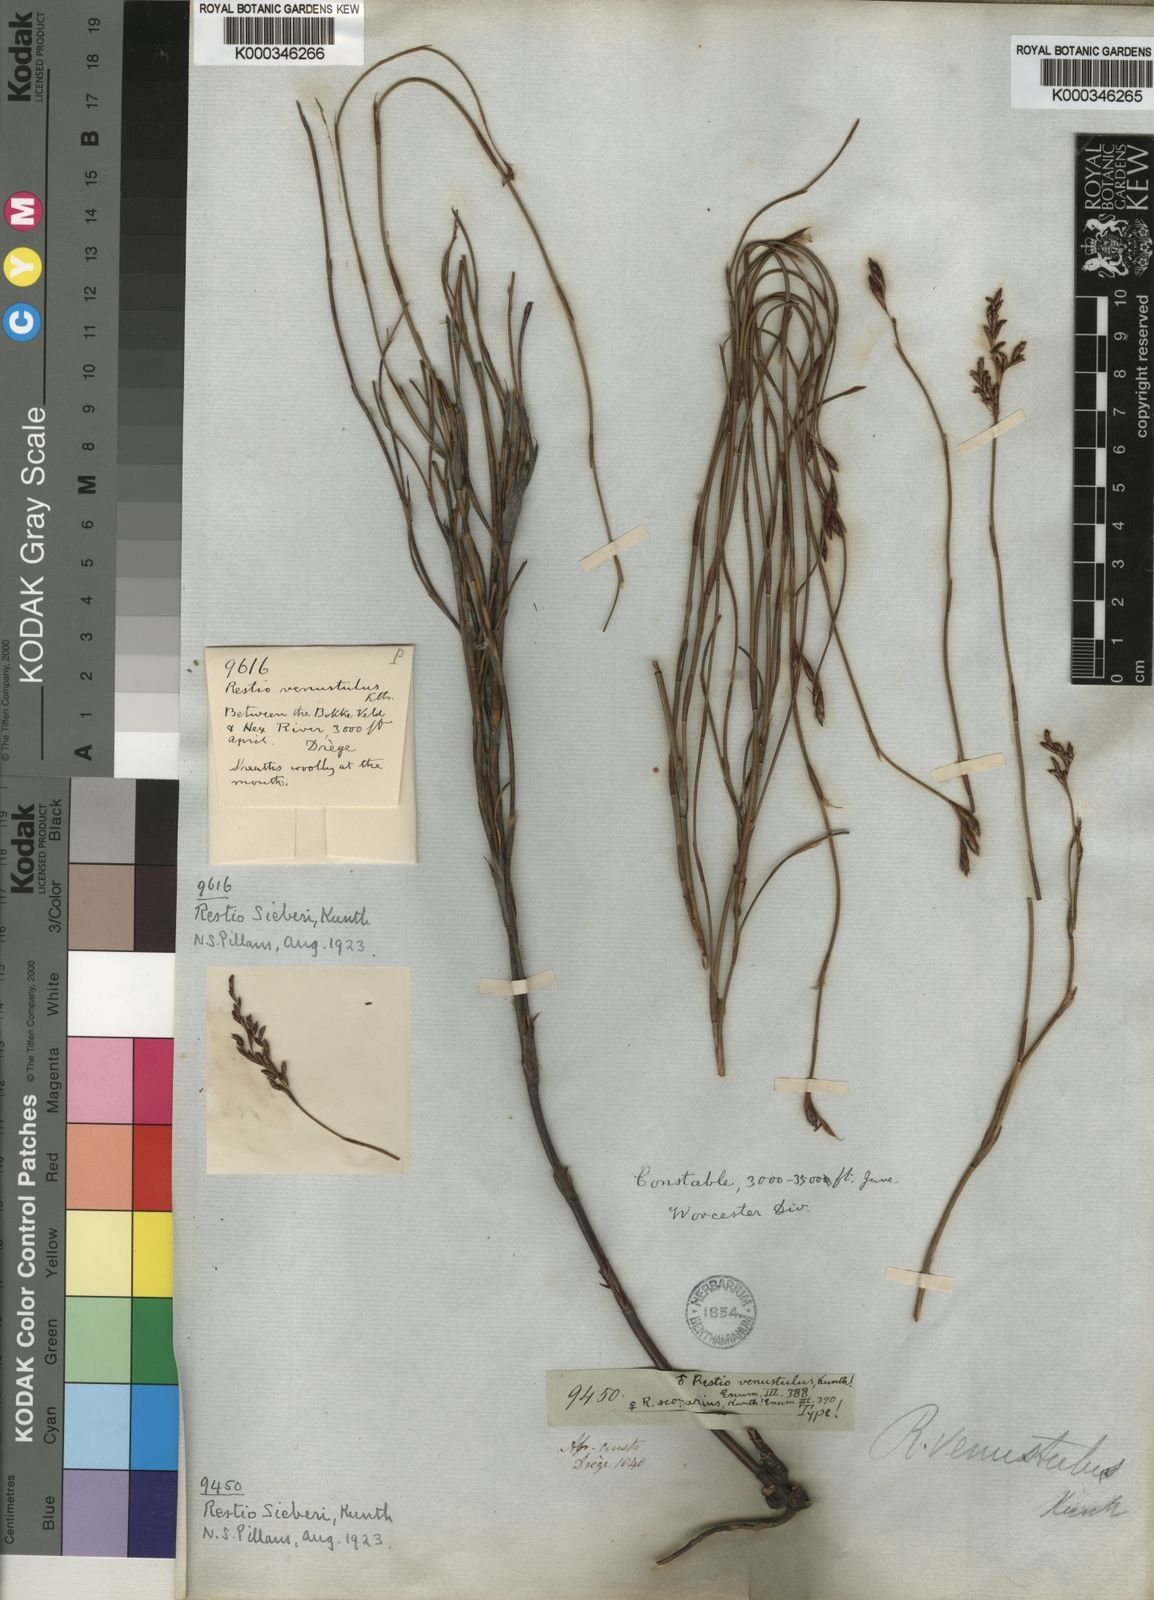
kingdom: Plantae
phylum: Tracheophyta
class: Liliopsida
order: Poales
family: Restionaceae
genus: Restio
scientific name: Restio sieberi
